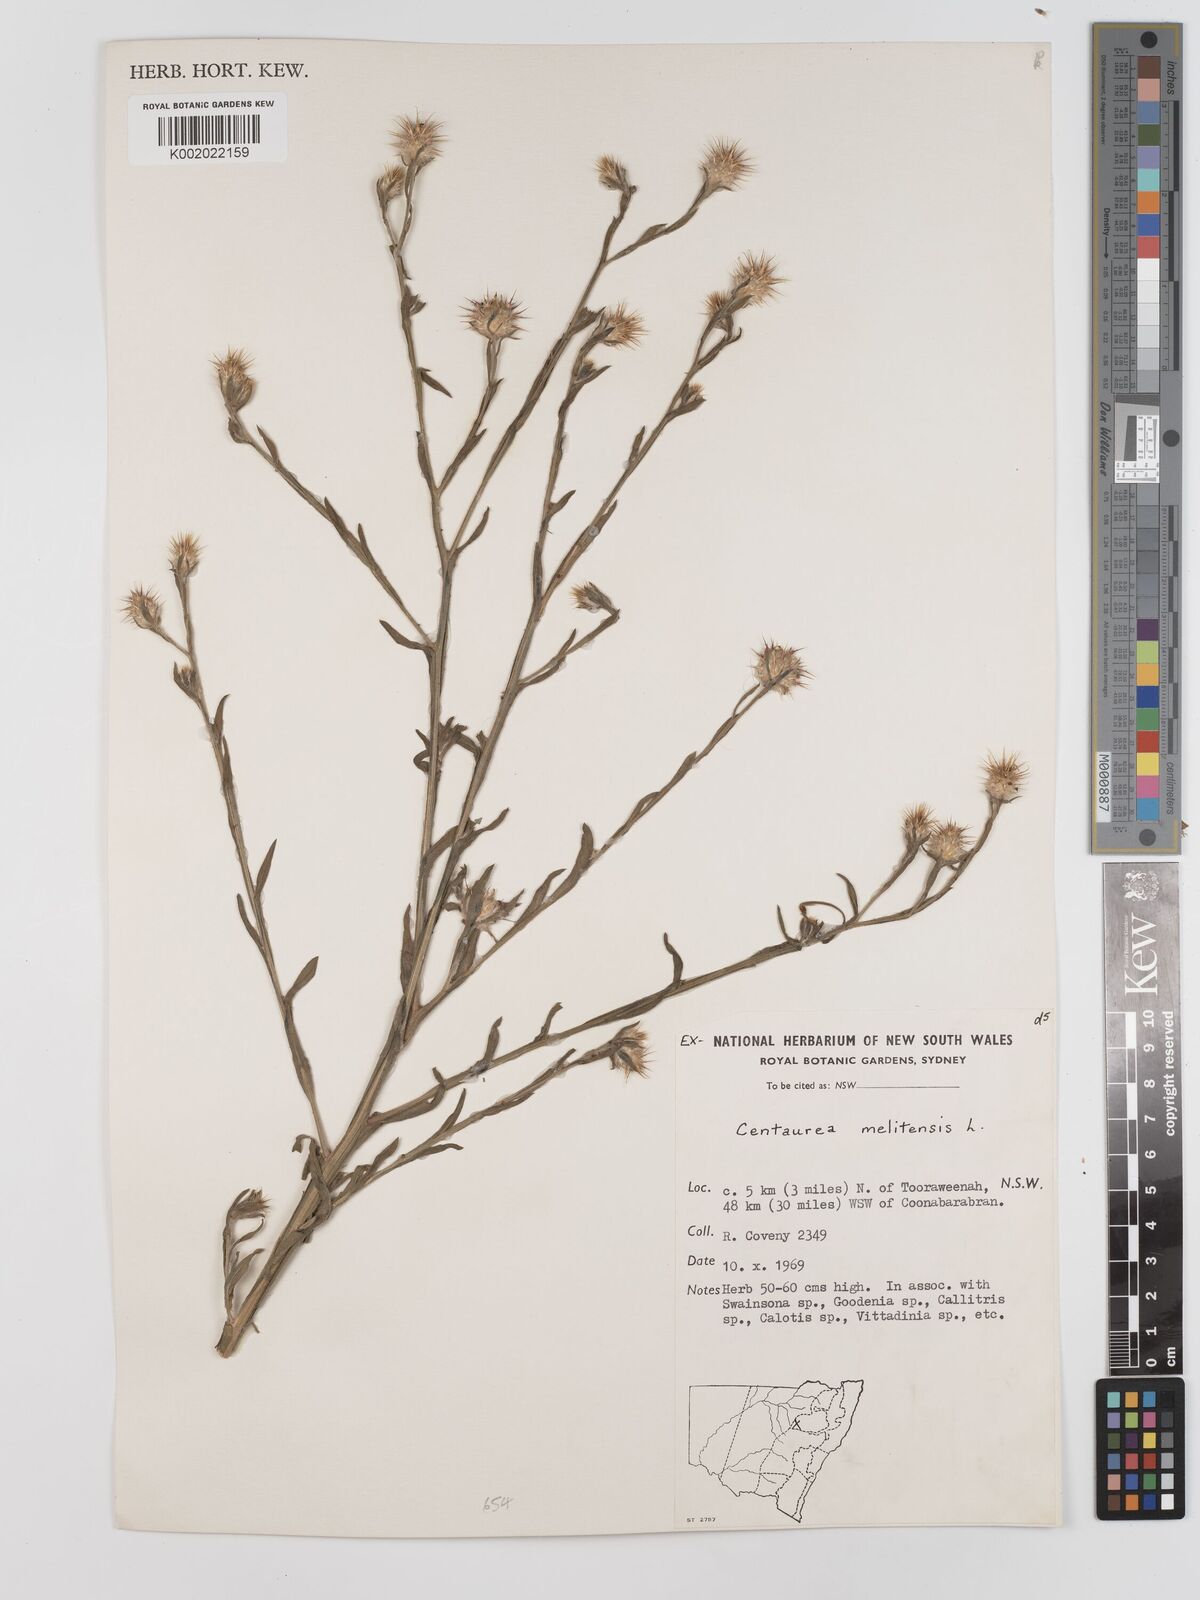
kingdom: Plantae
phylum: Tracheophyta
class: Magnoliopsida
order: Asterales
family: Asteraceae
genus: Centaurea
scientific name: Centaurea melitensis
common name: Maltese star-thistle
